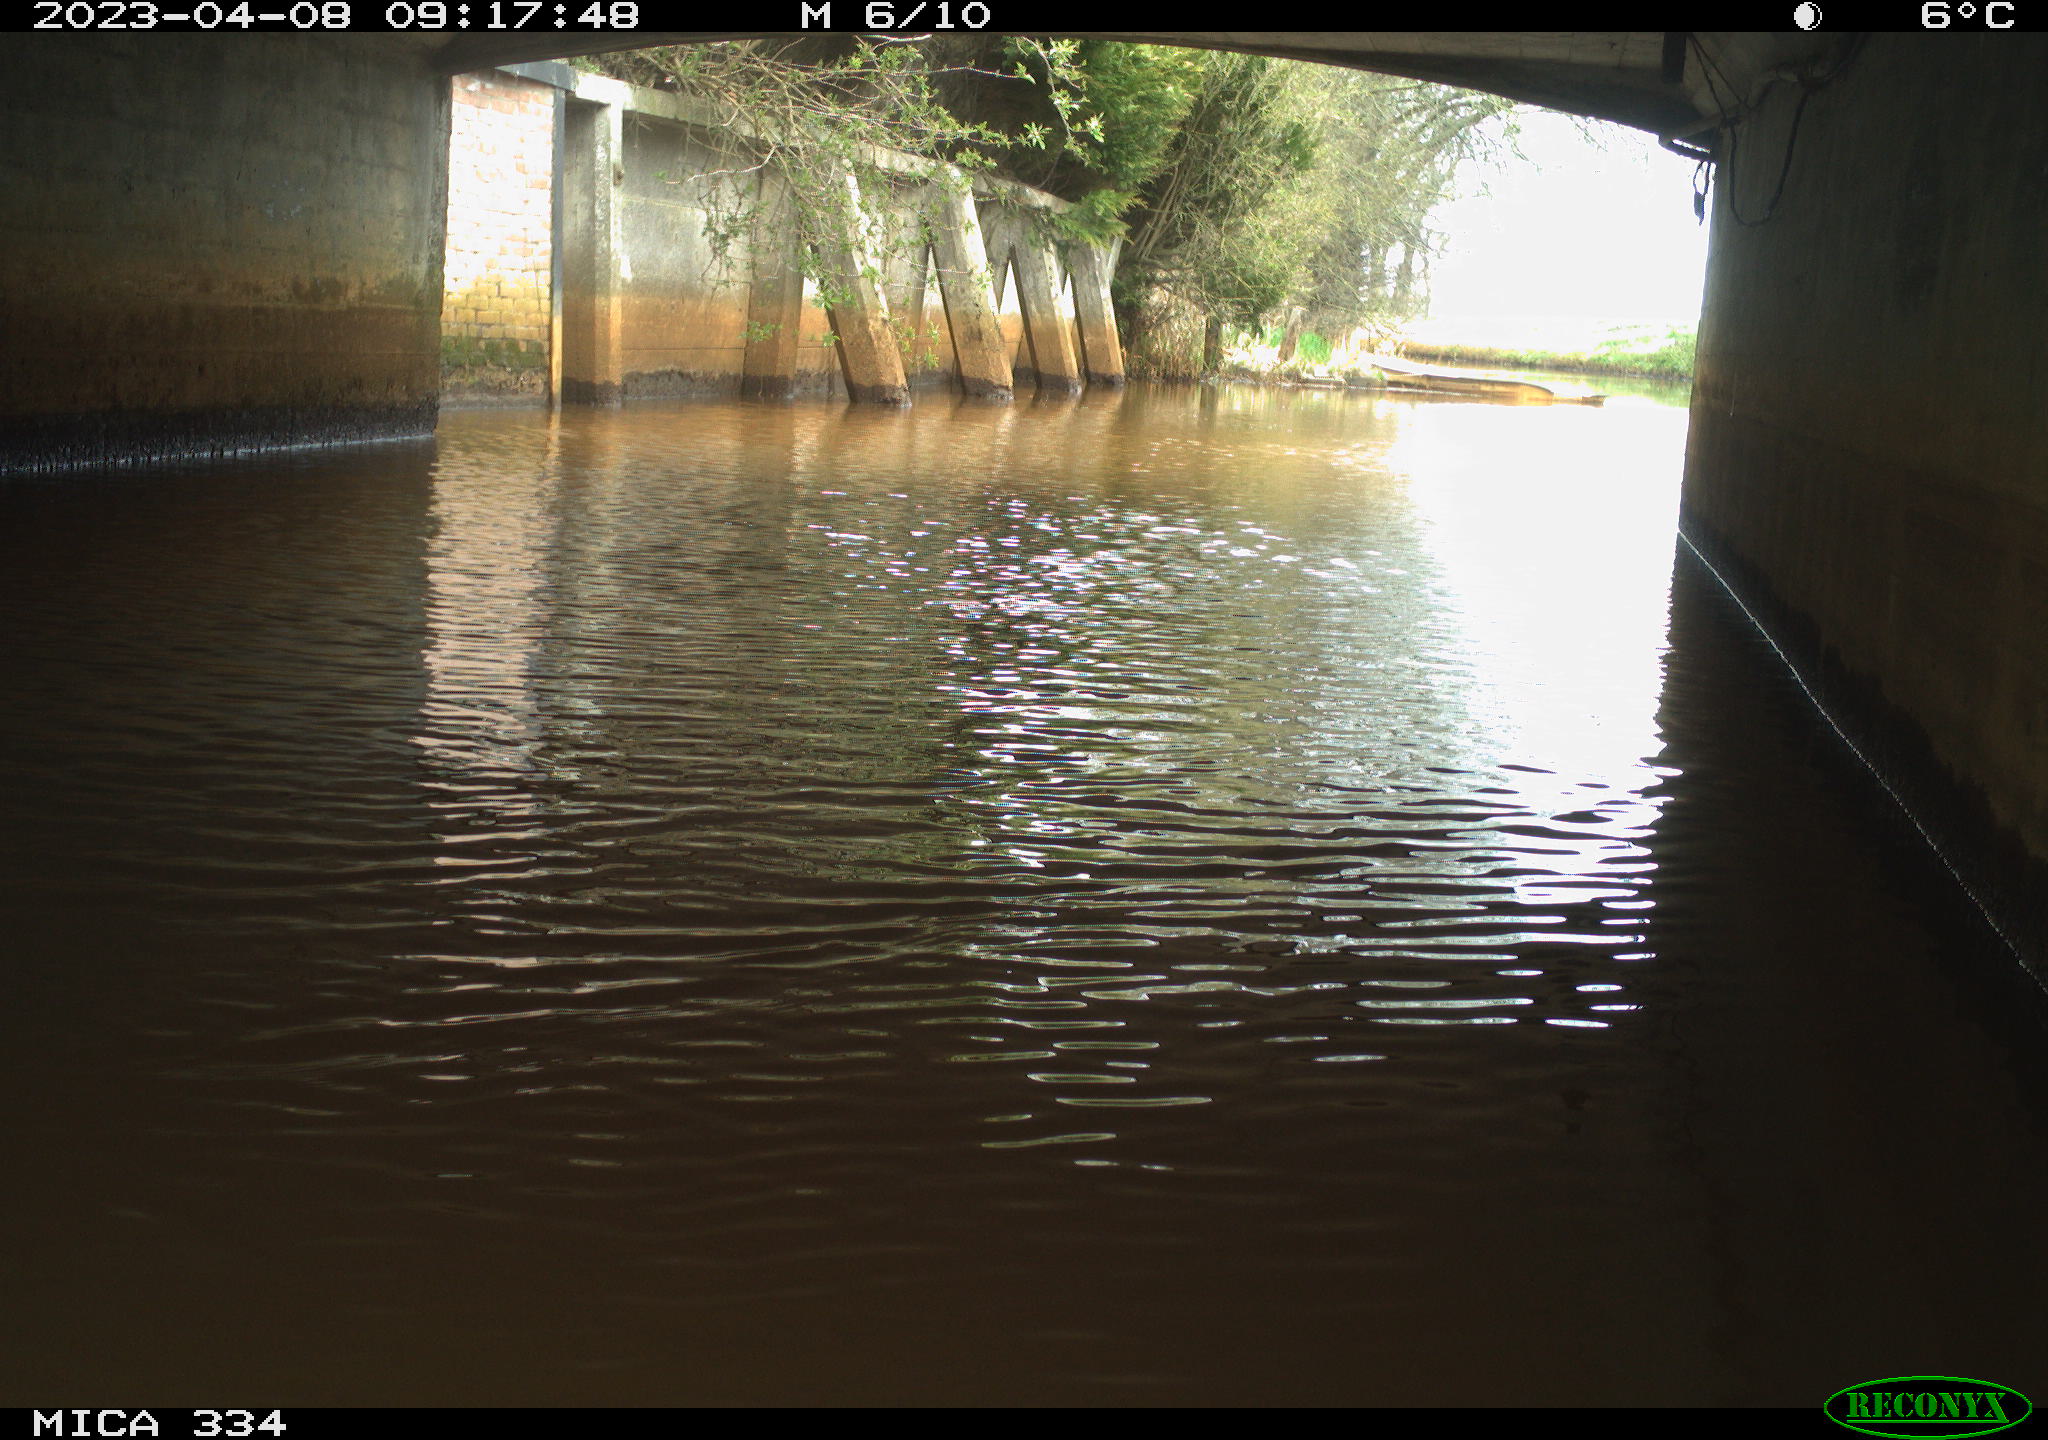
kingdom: Animalia
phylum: Chordata
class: Aves
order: Anseriformes
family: Anatidae
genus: Anas
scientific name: Anas
